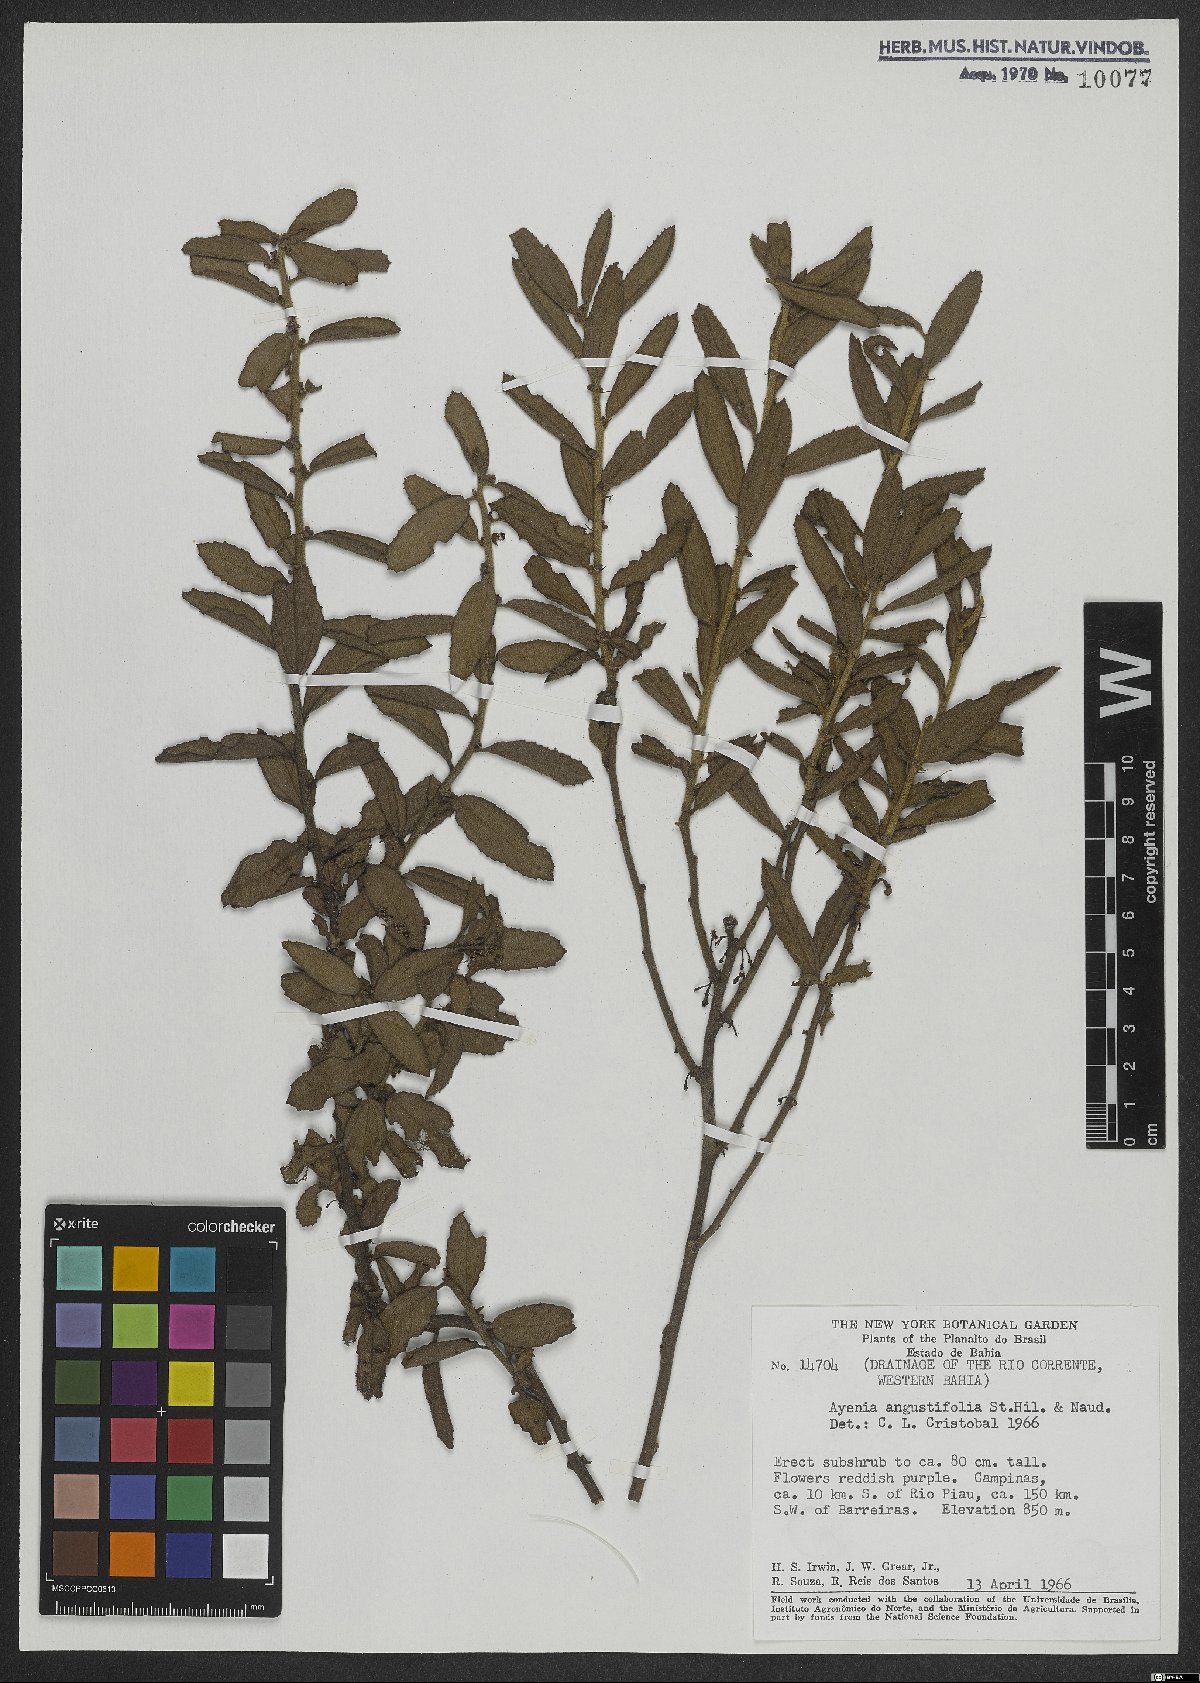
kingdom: Plantae
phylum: Tracheophyta
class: Magnoliopsida
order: Malvales
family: Malvaceae
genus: Ayenia
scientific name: Ayenia angustifolia
